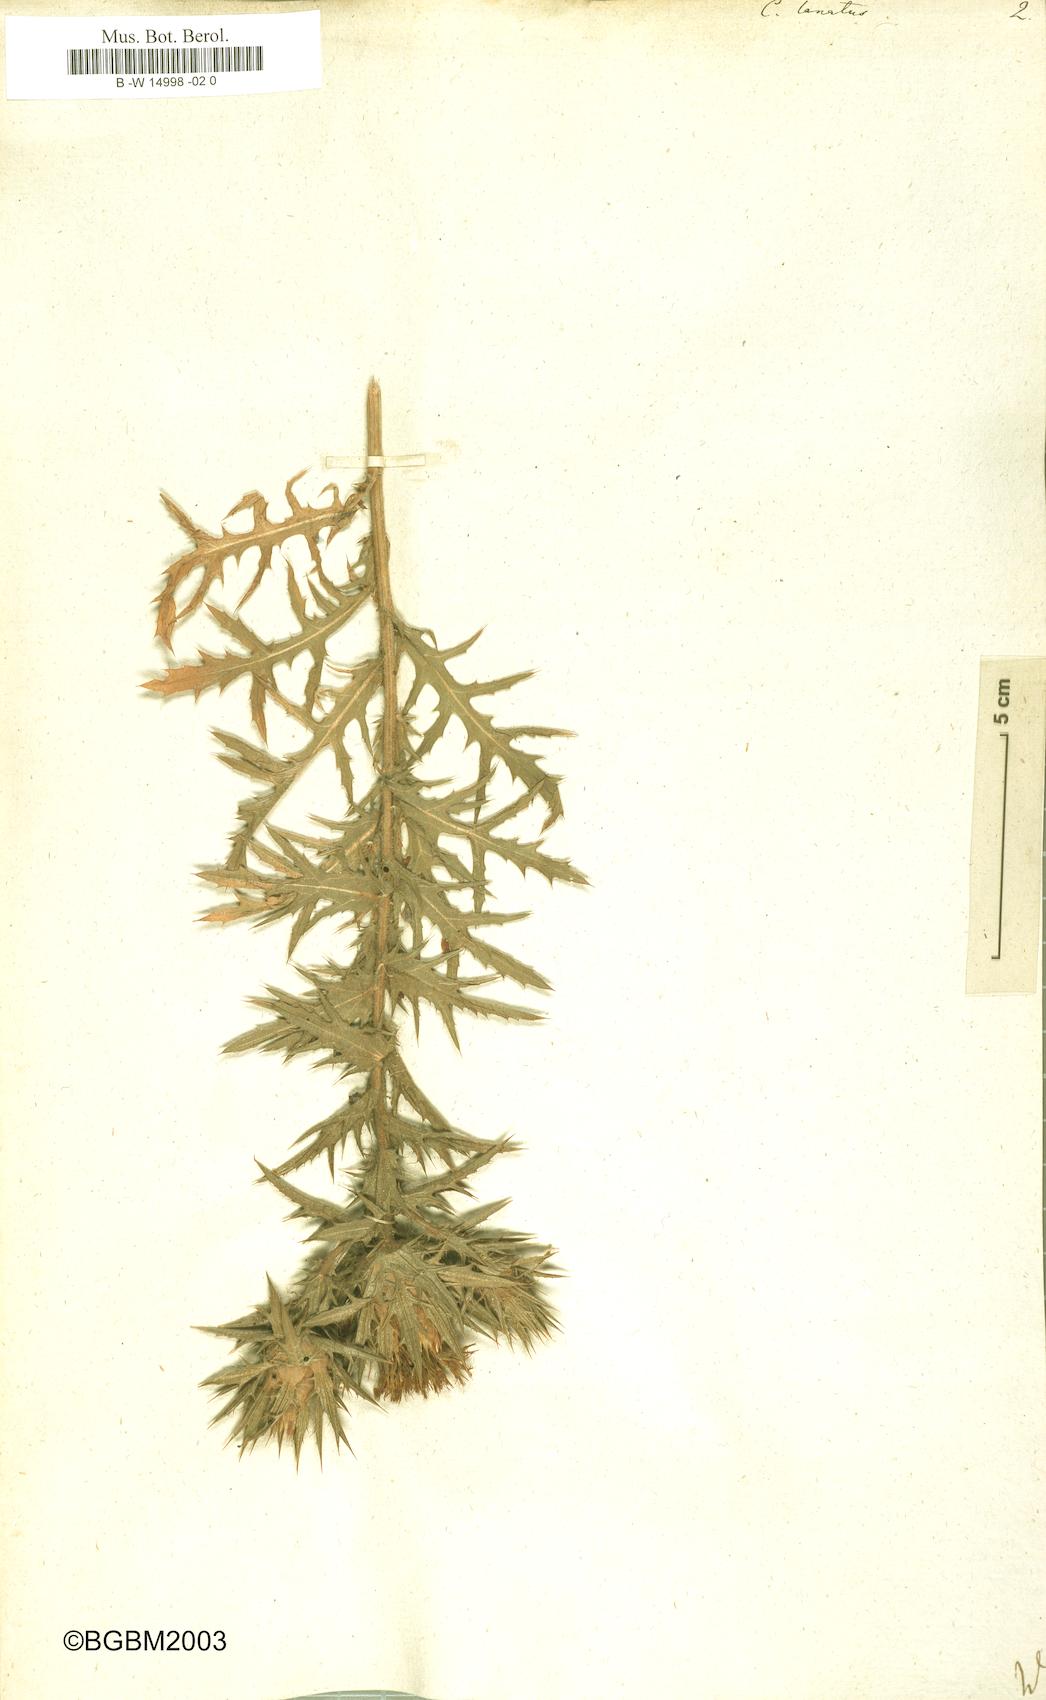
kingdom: Plantae
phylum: Tracheophyta
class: Magnoliopsida
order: Asterales
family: Asteraceae
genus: Carthamus
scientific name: Carthamus lanatus
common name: Downy safflower
